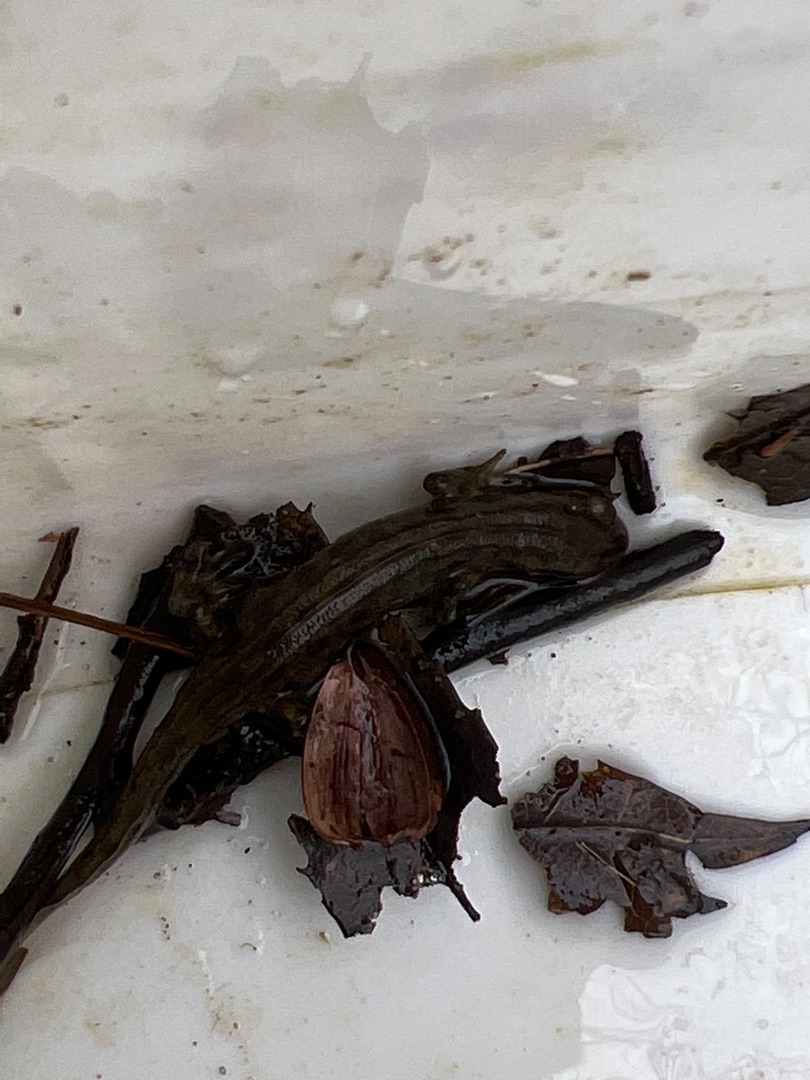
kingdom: Animalia
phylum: Chordata
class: Amphibia
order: Caudata
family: Salamandridae
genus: Lissotriton
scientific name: Lissotriton vulgaris
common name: Lille vandsalamander
